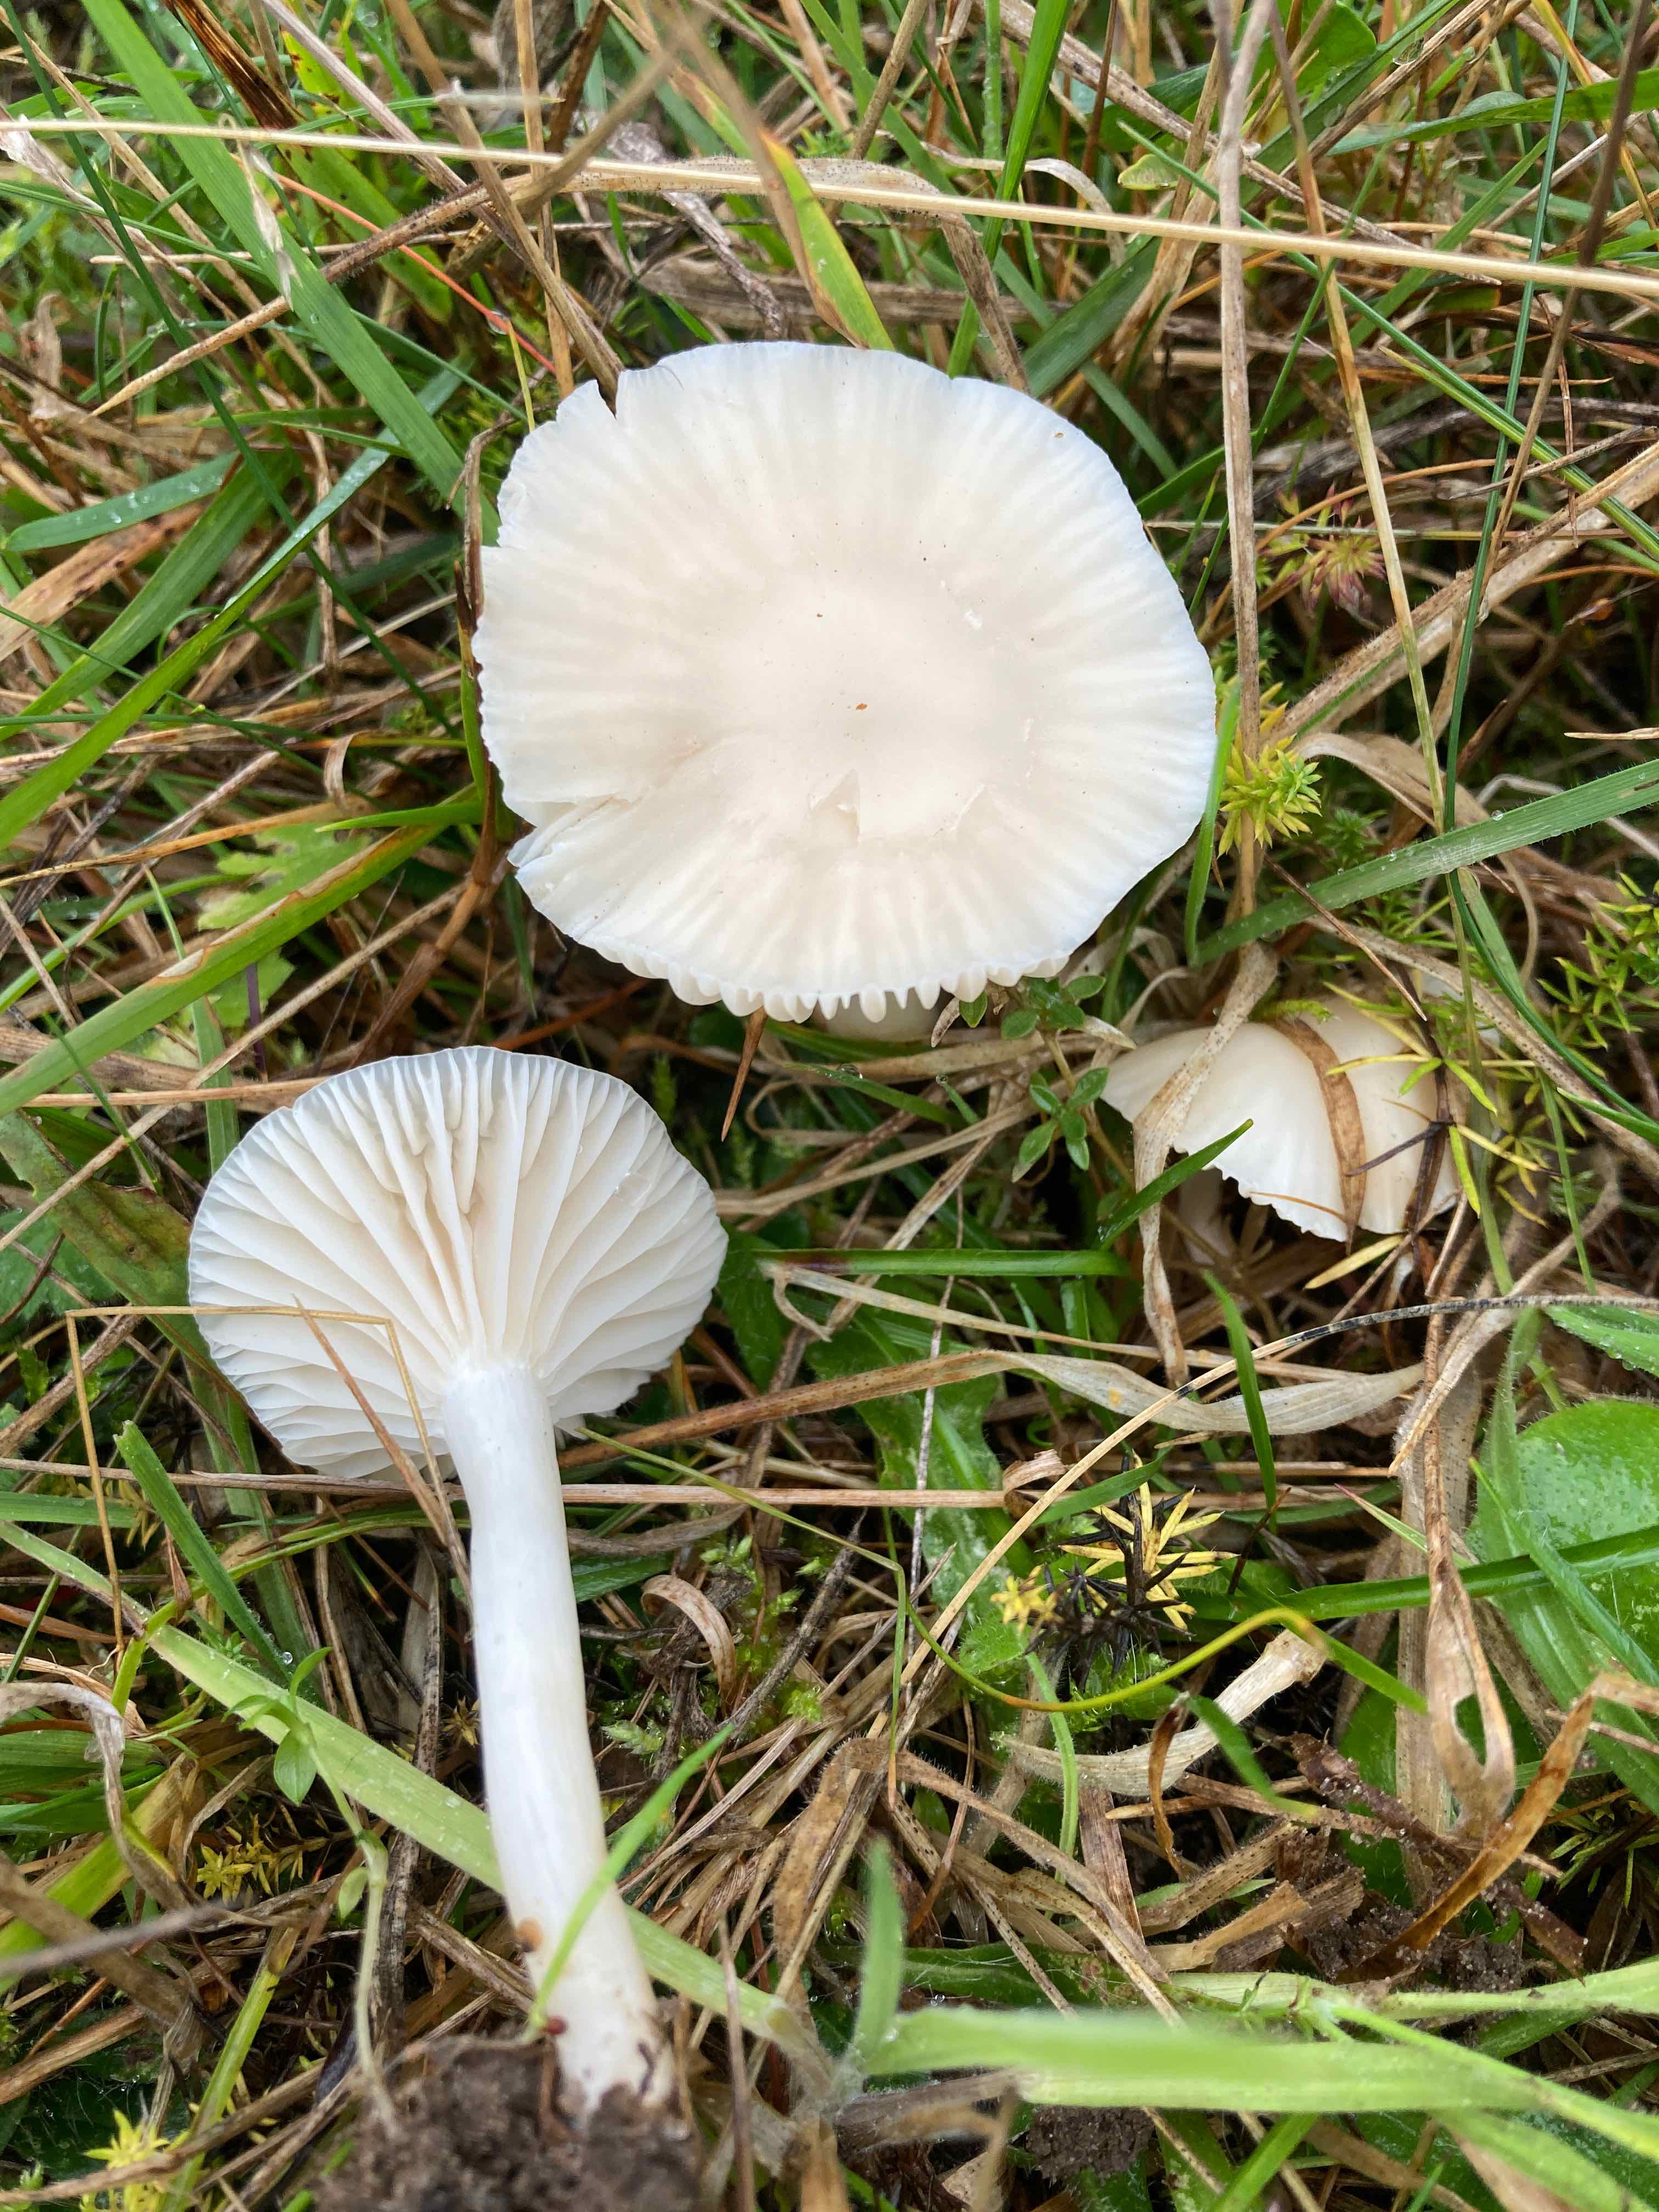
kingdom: Fungi
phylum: Basidiomycota
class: Agaricomycetes
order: Agaricales
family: Hygrophoraceae
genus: Cuphophyllus
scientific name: Cuphophyllus virgineus
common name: snehvid vokshat
